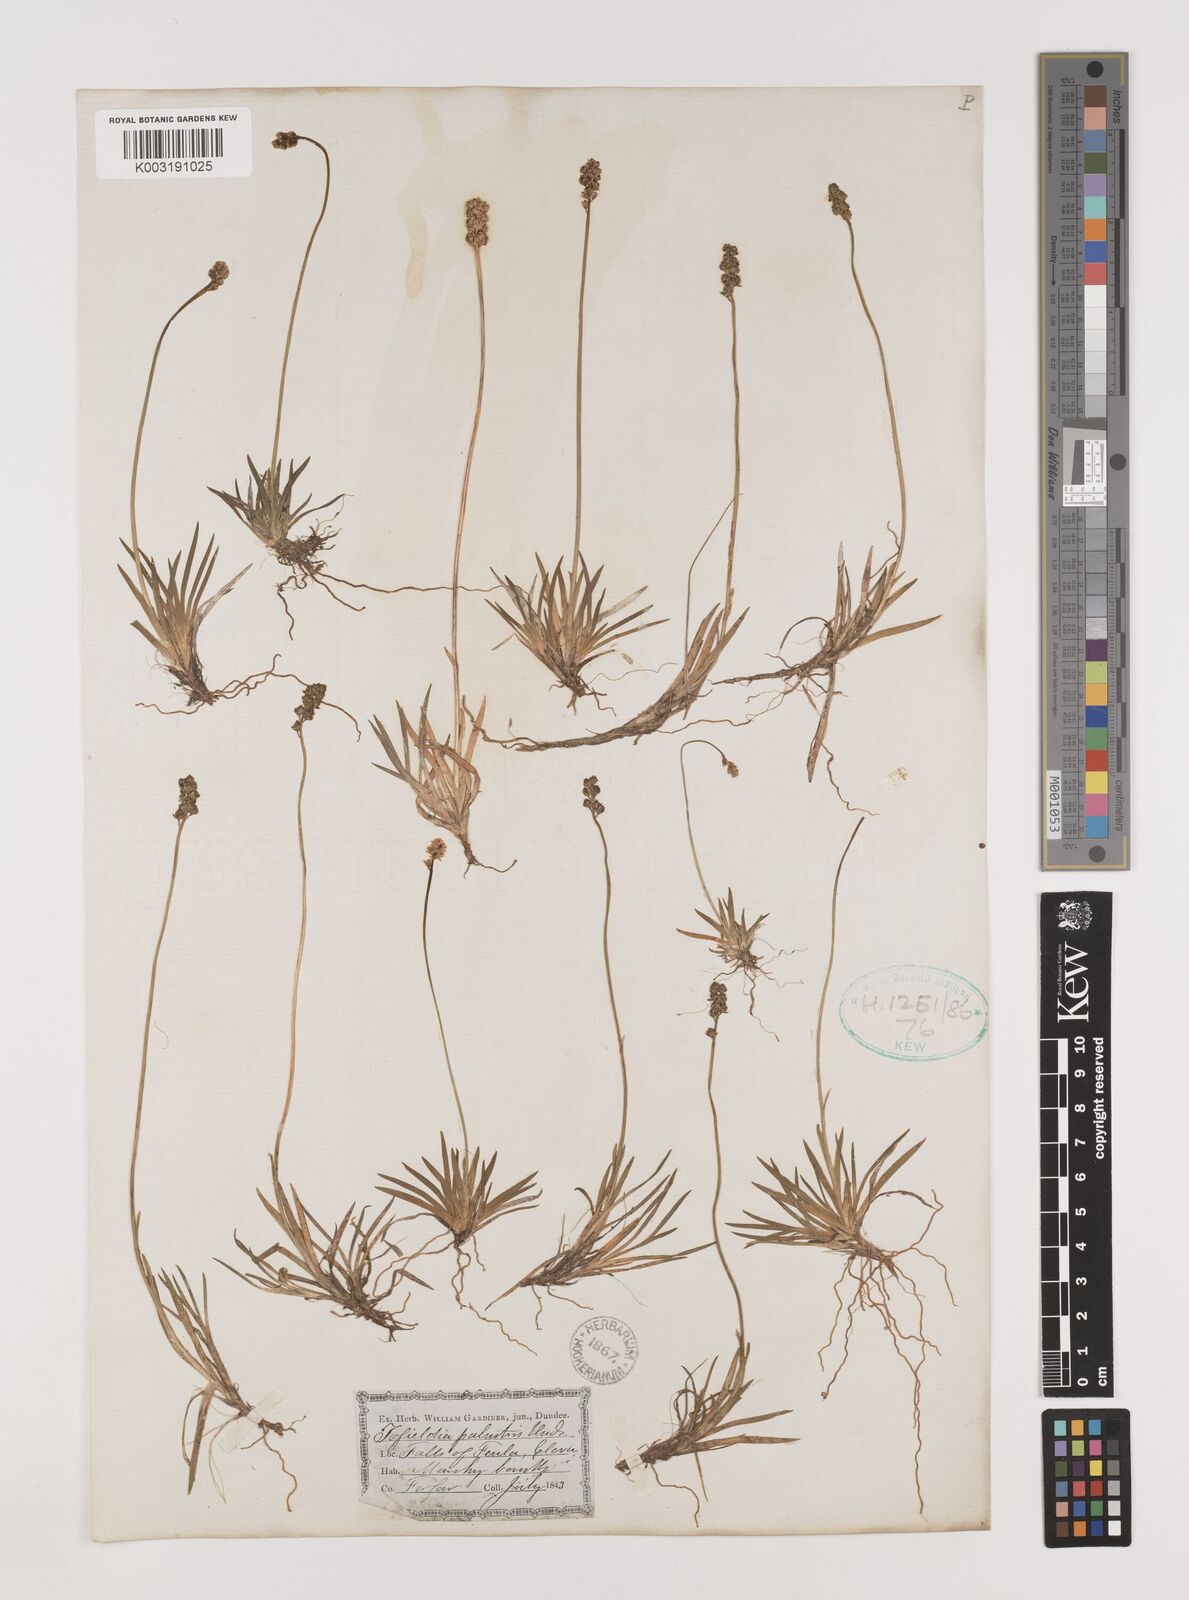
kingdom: Plantae
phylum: Tracheophyta
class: Liliopsida
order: Alismatales
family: Tofieldiaceae
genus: Tofieldia
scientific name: Tofieldia pusilla
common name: Scottish false asphodel
